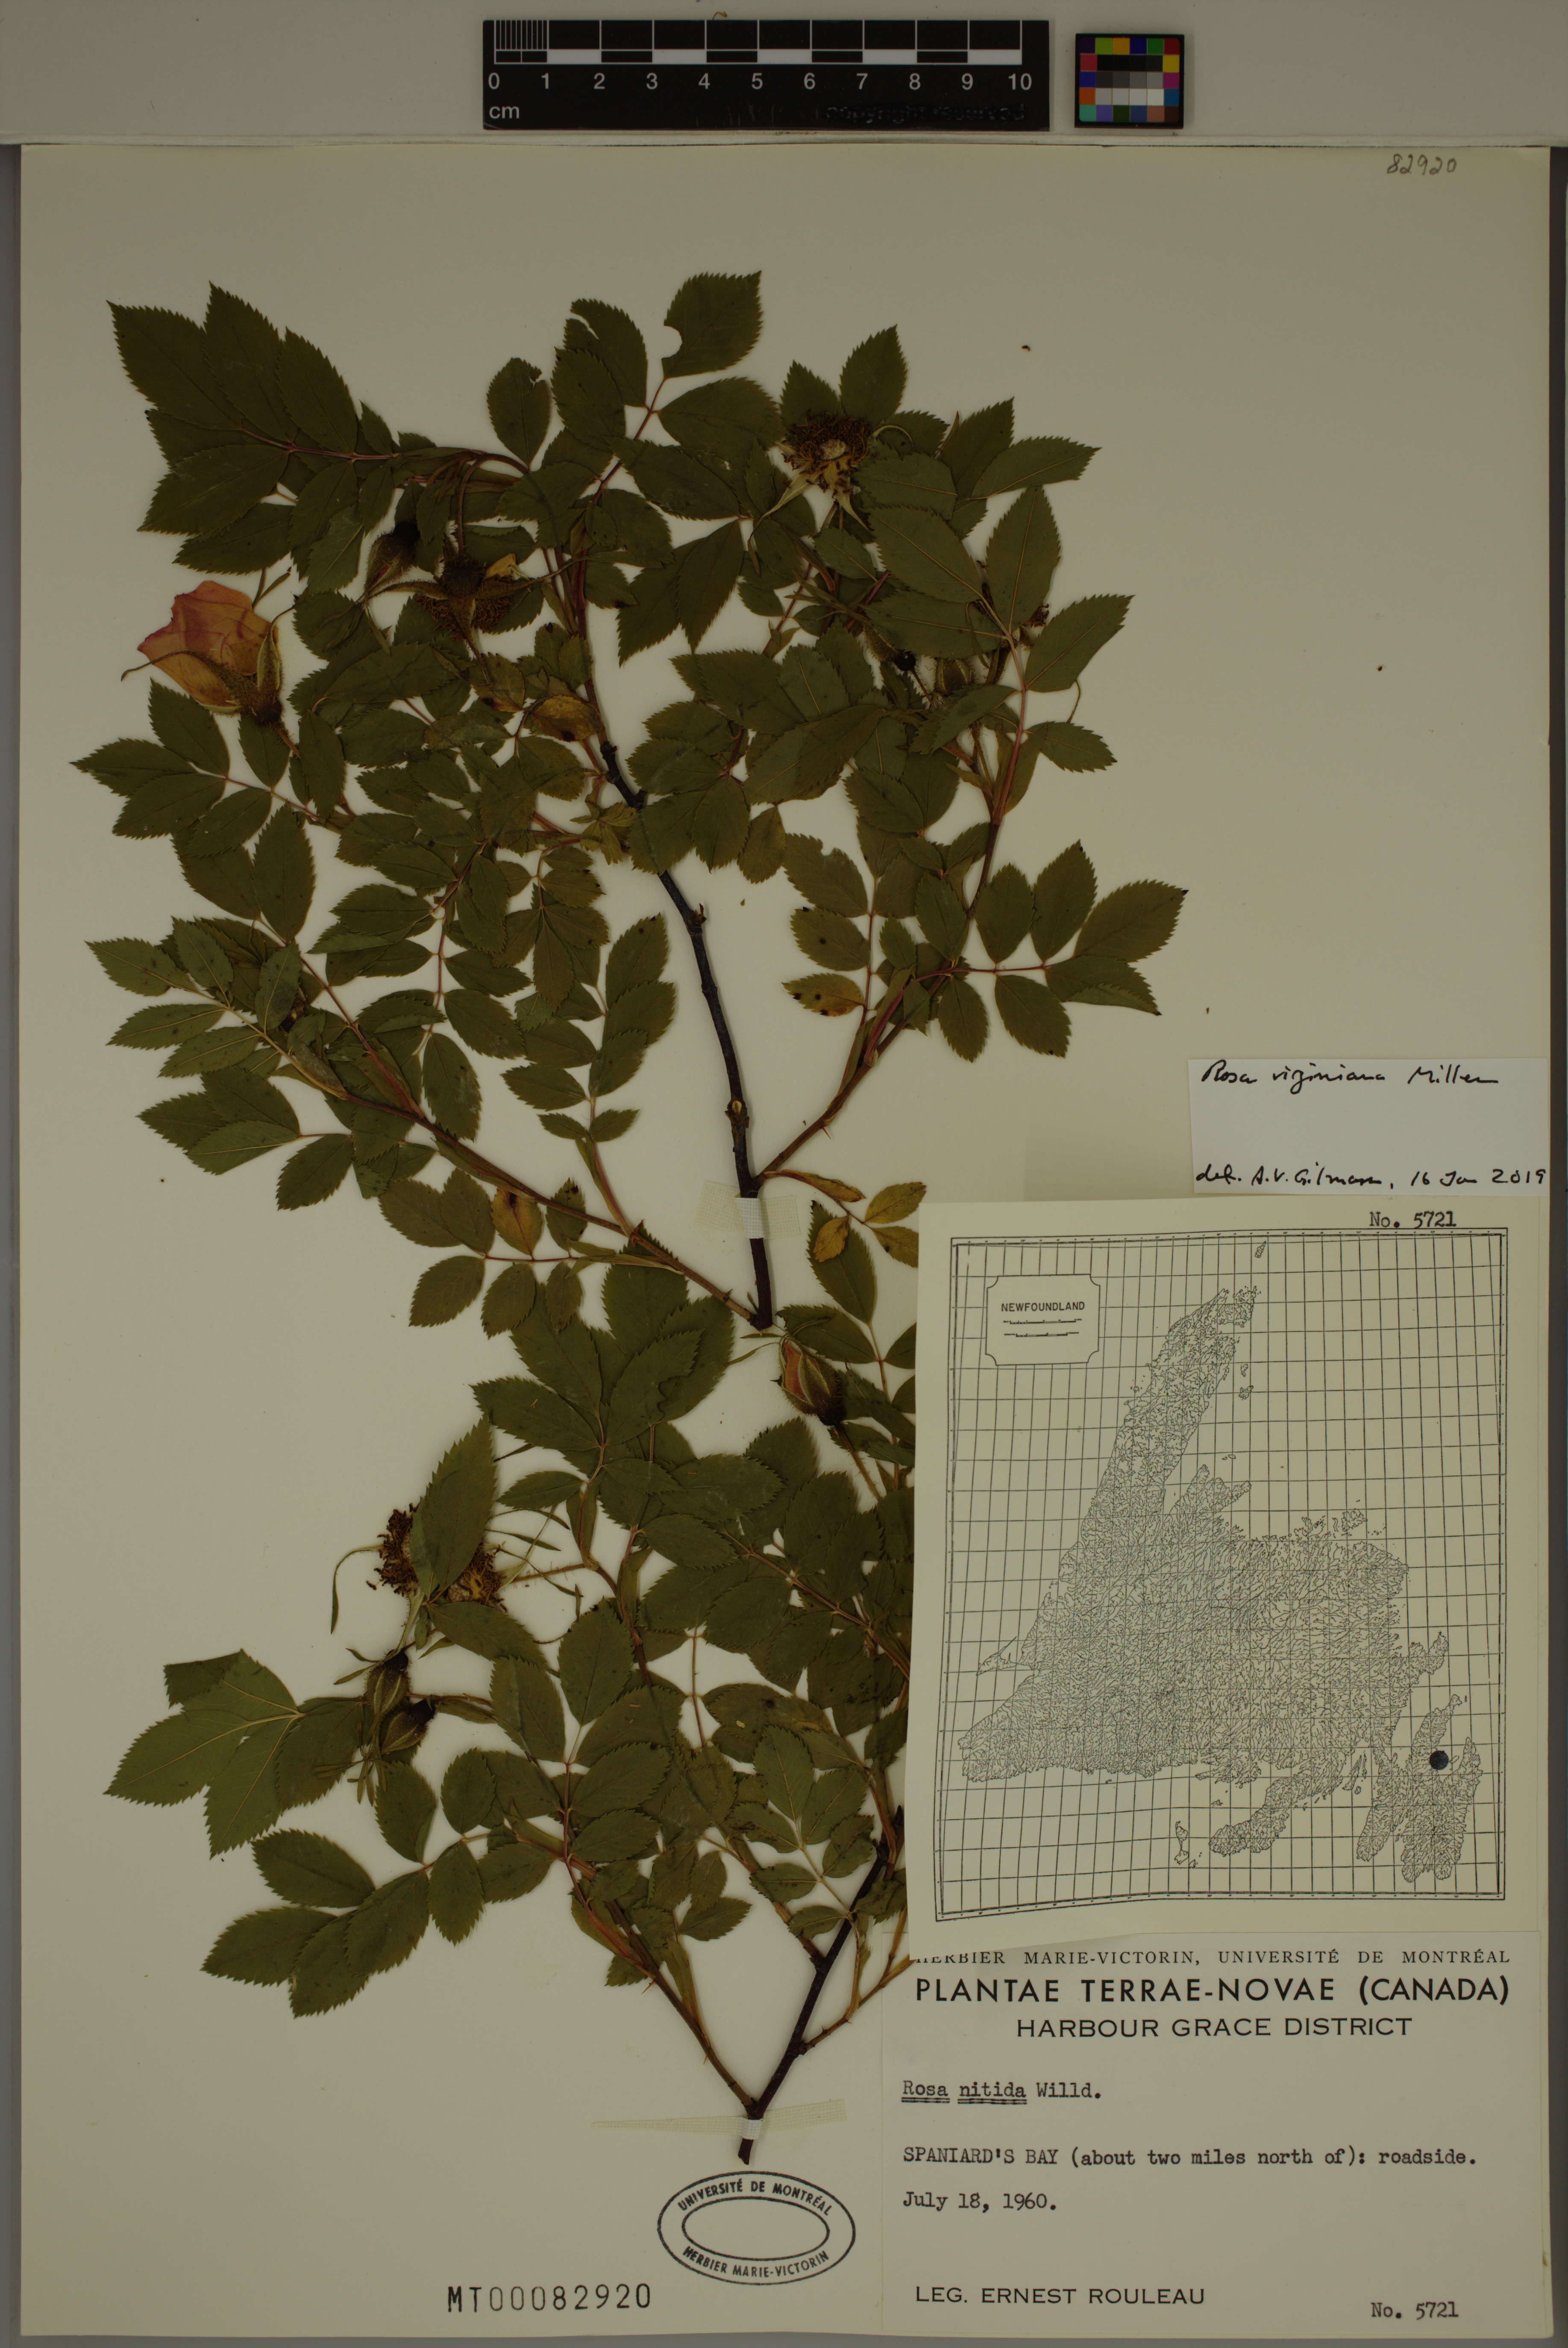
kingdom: Plantae
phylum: Tracheophyta
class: Magnoliopsida
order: Rosales
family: Rosaceae
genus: Rosa
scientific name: Rosa carolina
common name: Pasture rose
